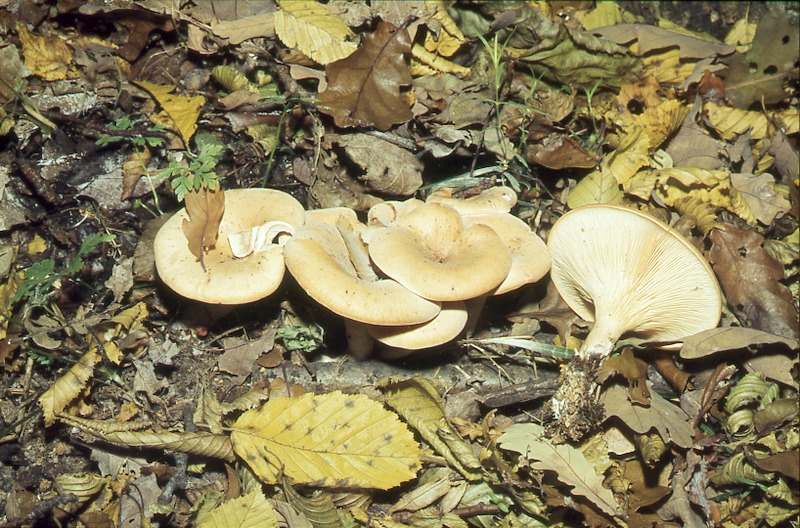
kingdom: Fungi
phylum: Basidiomycota
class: Agaricomycetes
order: Agaricales
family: Tricholomataceae
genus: Paralepista
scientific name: Paralepista flaccida
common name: Tawny funnel cap
